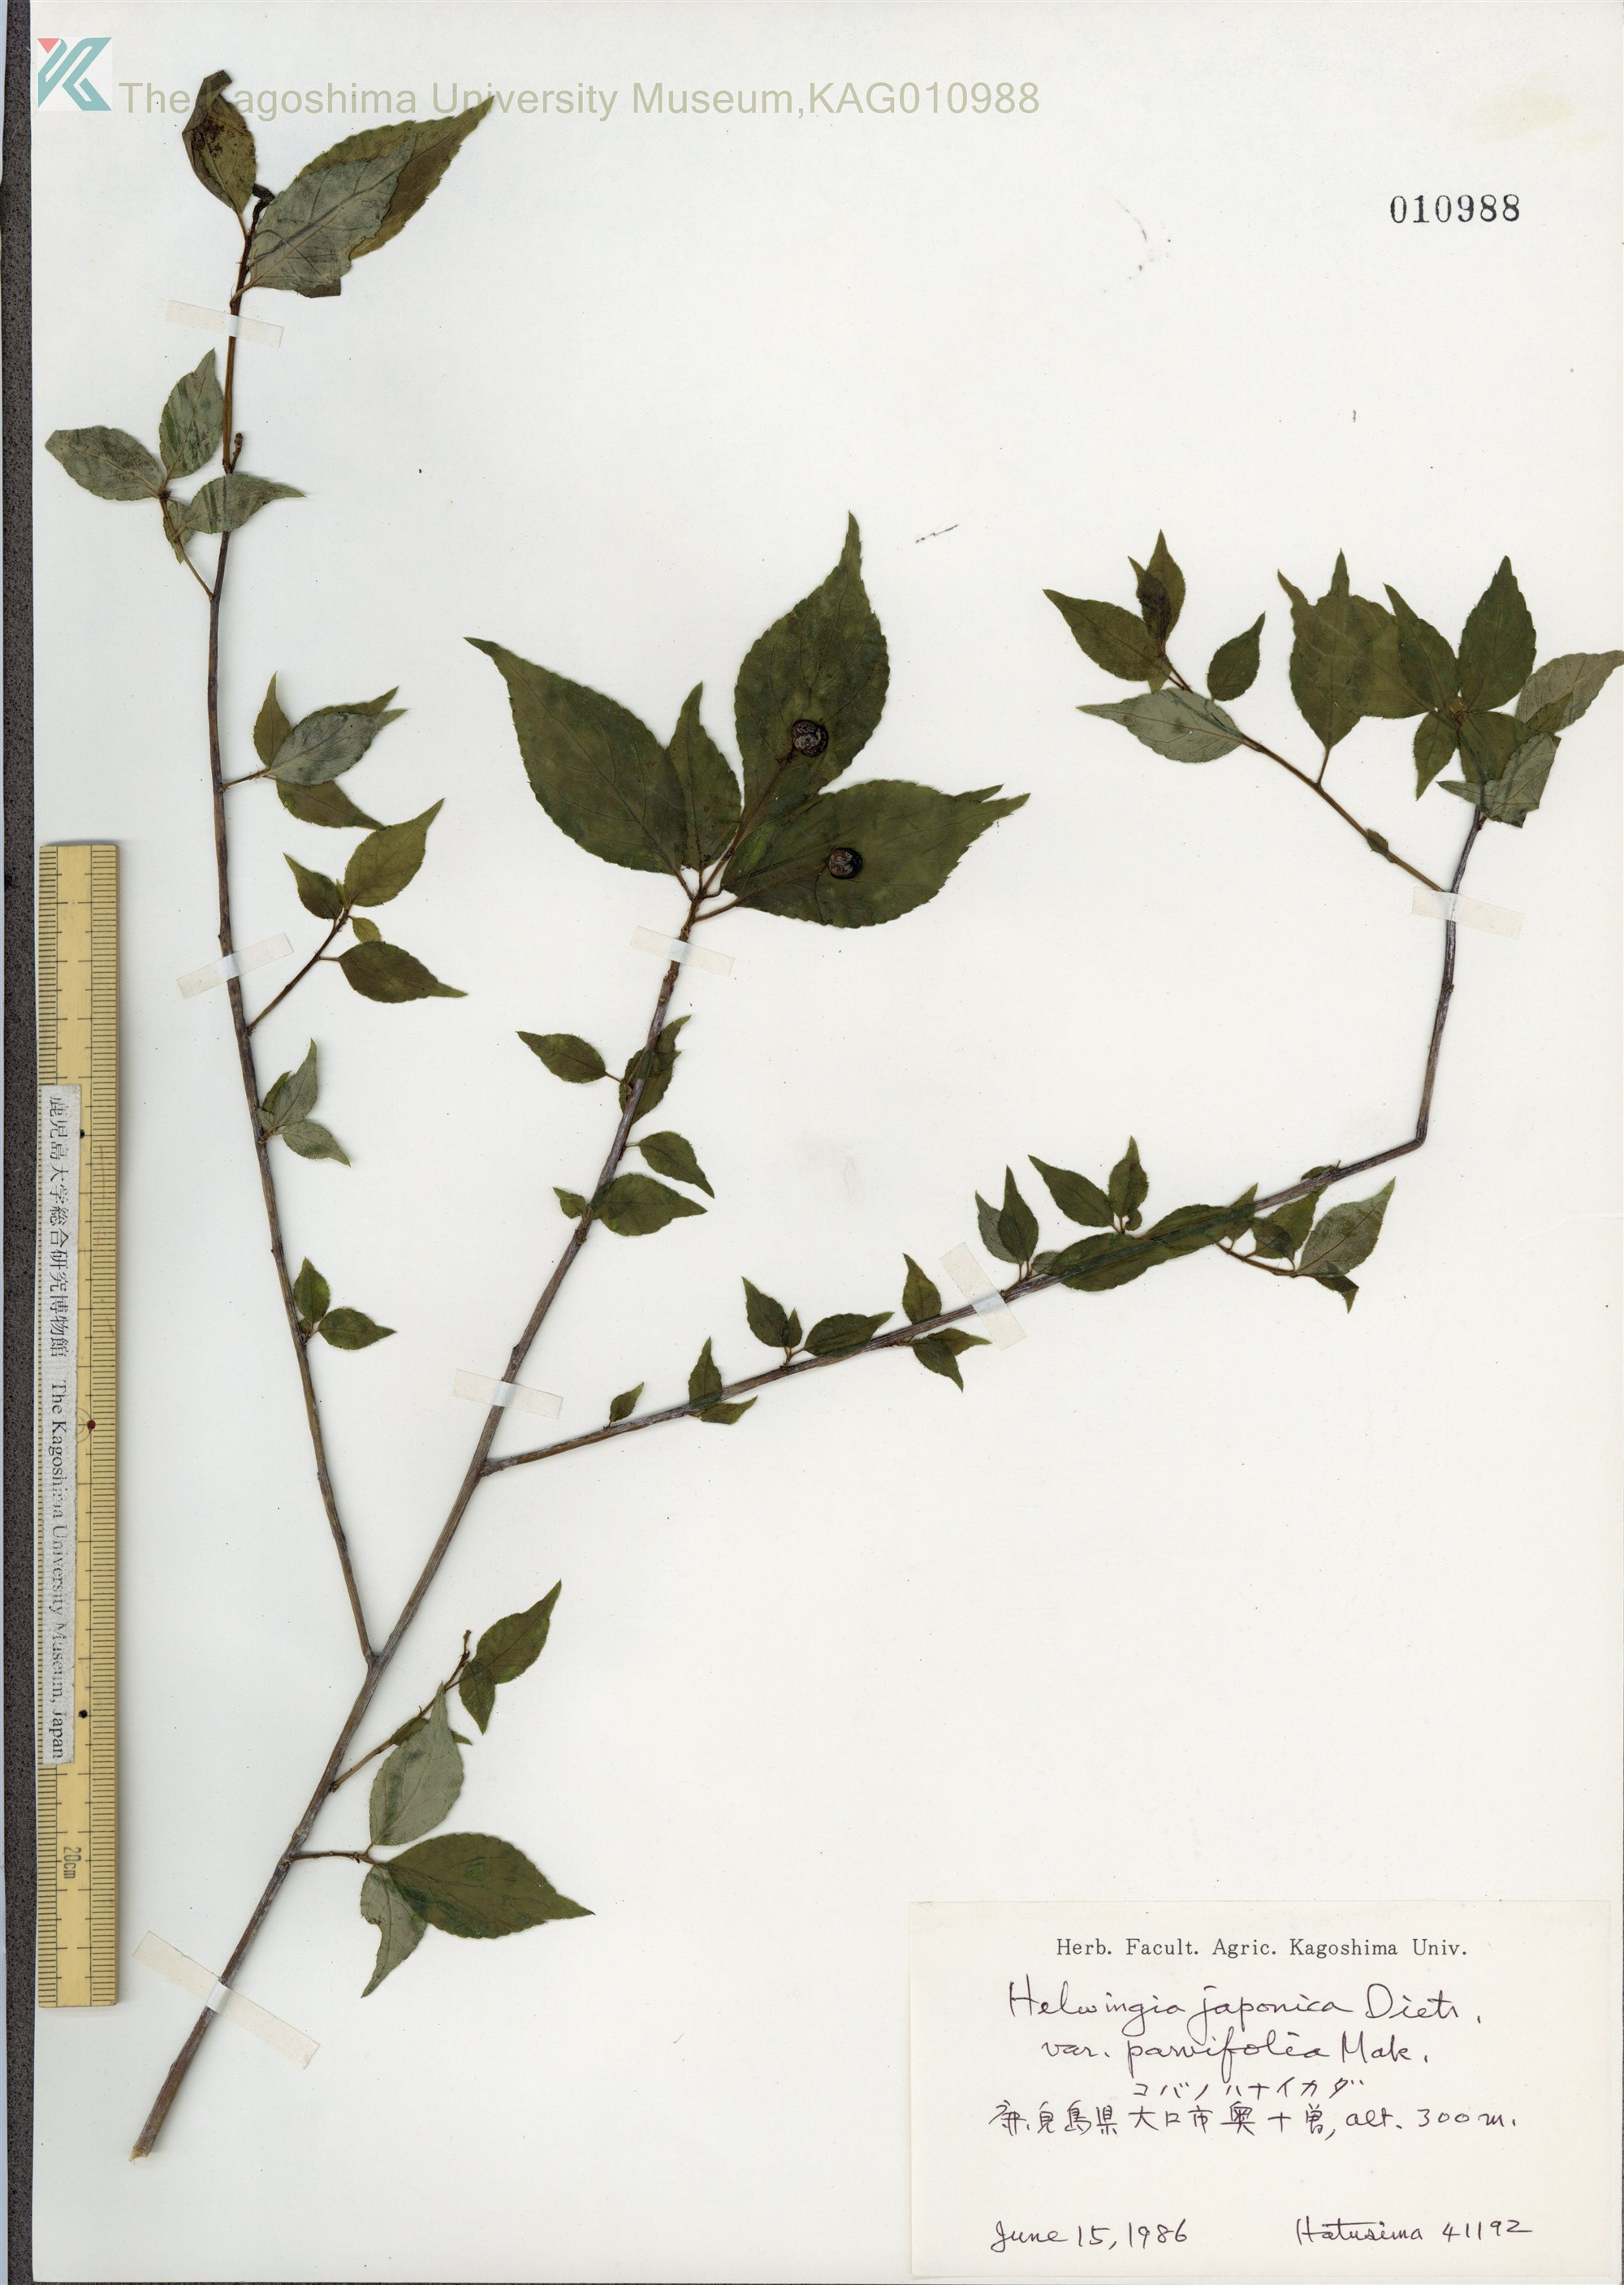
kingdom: Plantae
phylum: Tracheophyta
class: Magnoliopsida
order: Aquifoliales
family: Helwingiaceae
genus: Helwingia
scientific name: Helwingia japonica
